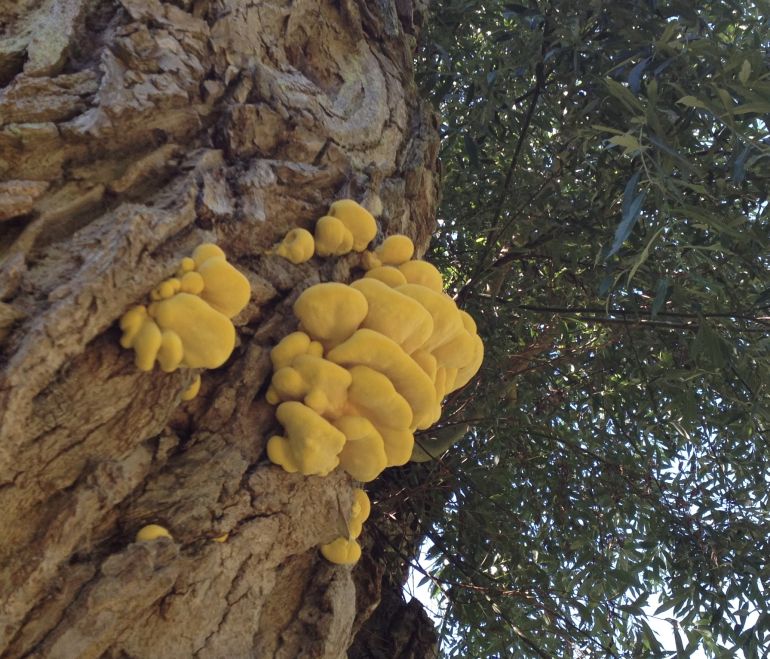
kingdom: Fungi
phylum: Basidiomycota
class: Agaricomycetes
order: Polyporales
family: Laetiporaceae
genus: Laetiporus
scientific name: Laetiporus sulphureus
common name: svovlporesvamp
